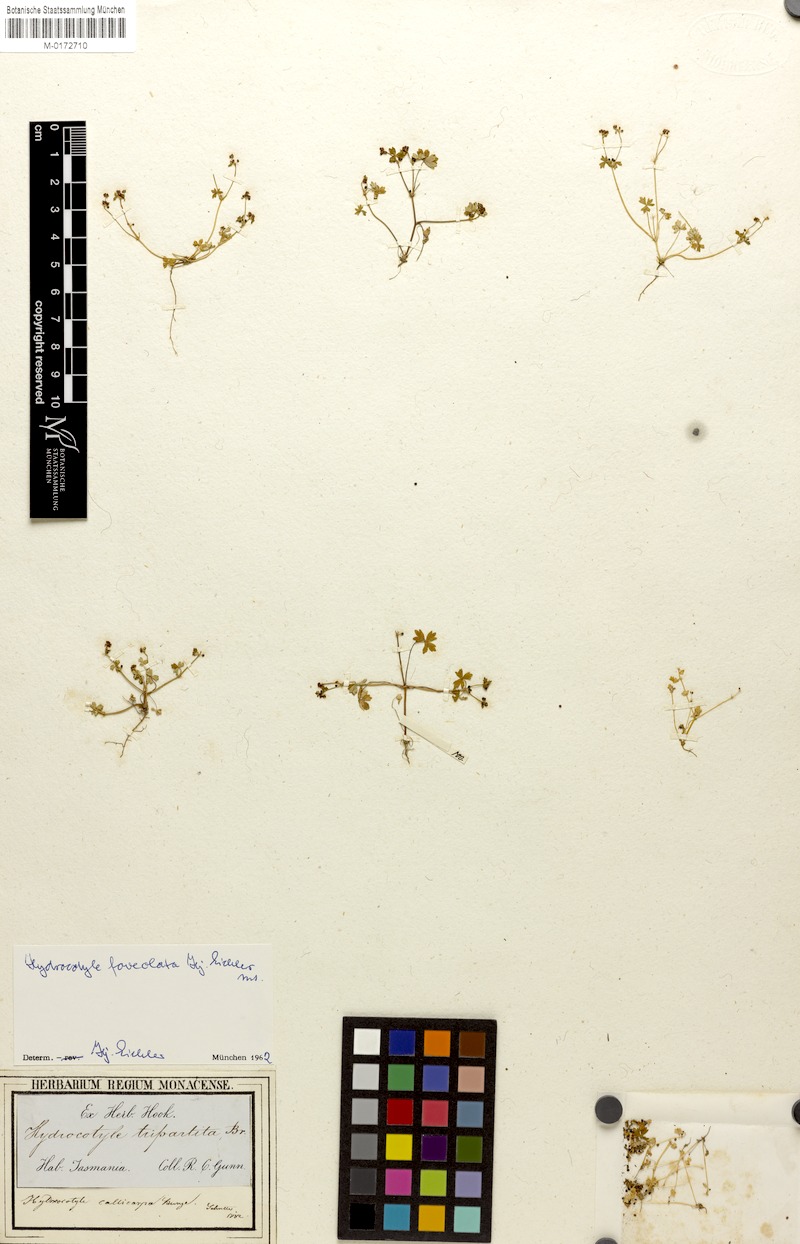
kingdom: Plantae
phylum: Tracheophyta
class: Magnoliopsida
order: Apiales
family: Araliaceae
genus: Hydrocotyle
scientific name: Hydrocotyle foveolata
